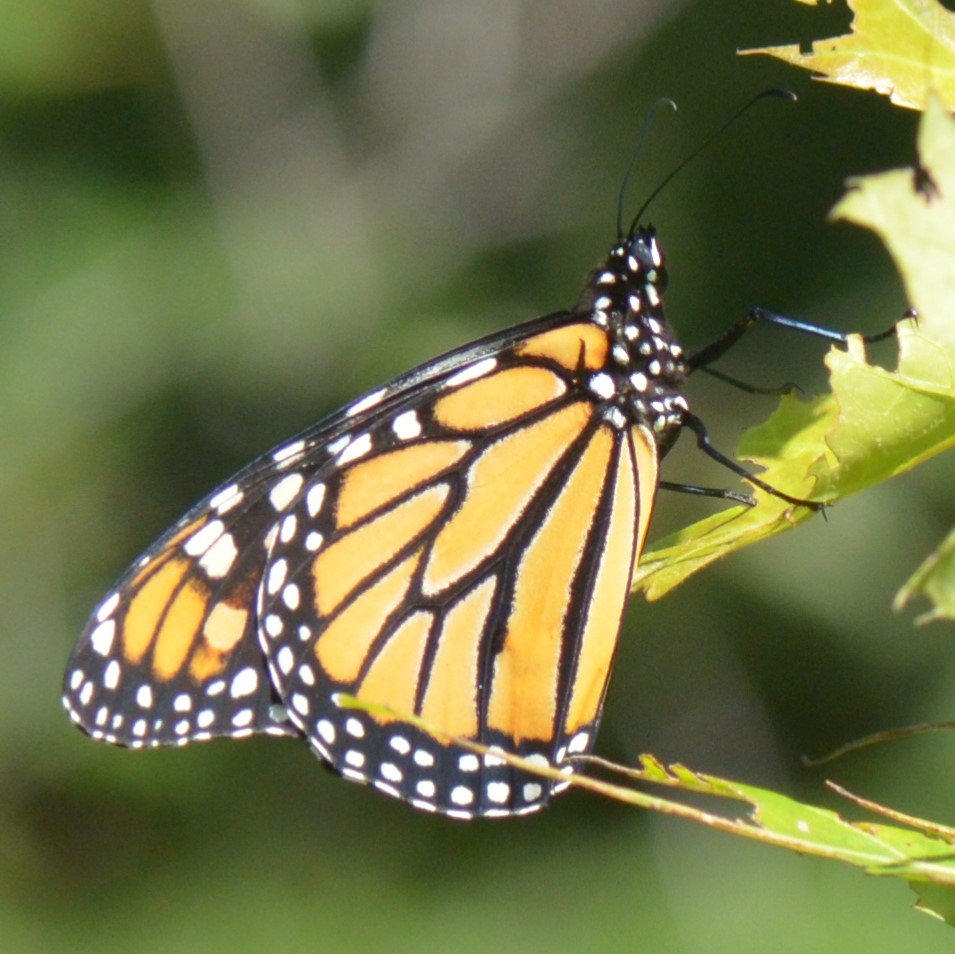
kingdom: Animalia
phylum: Arthropoda
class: Insecta
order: Lepidoptera
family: Nymphalidae
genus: Danaus
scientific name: Danaus plexippus
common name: Monarch
